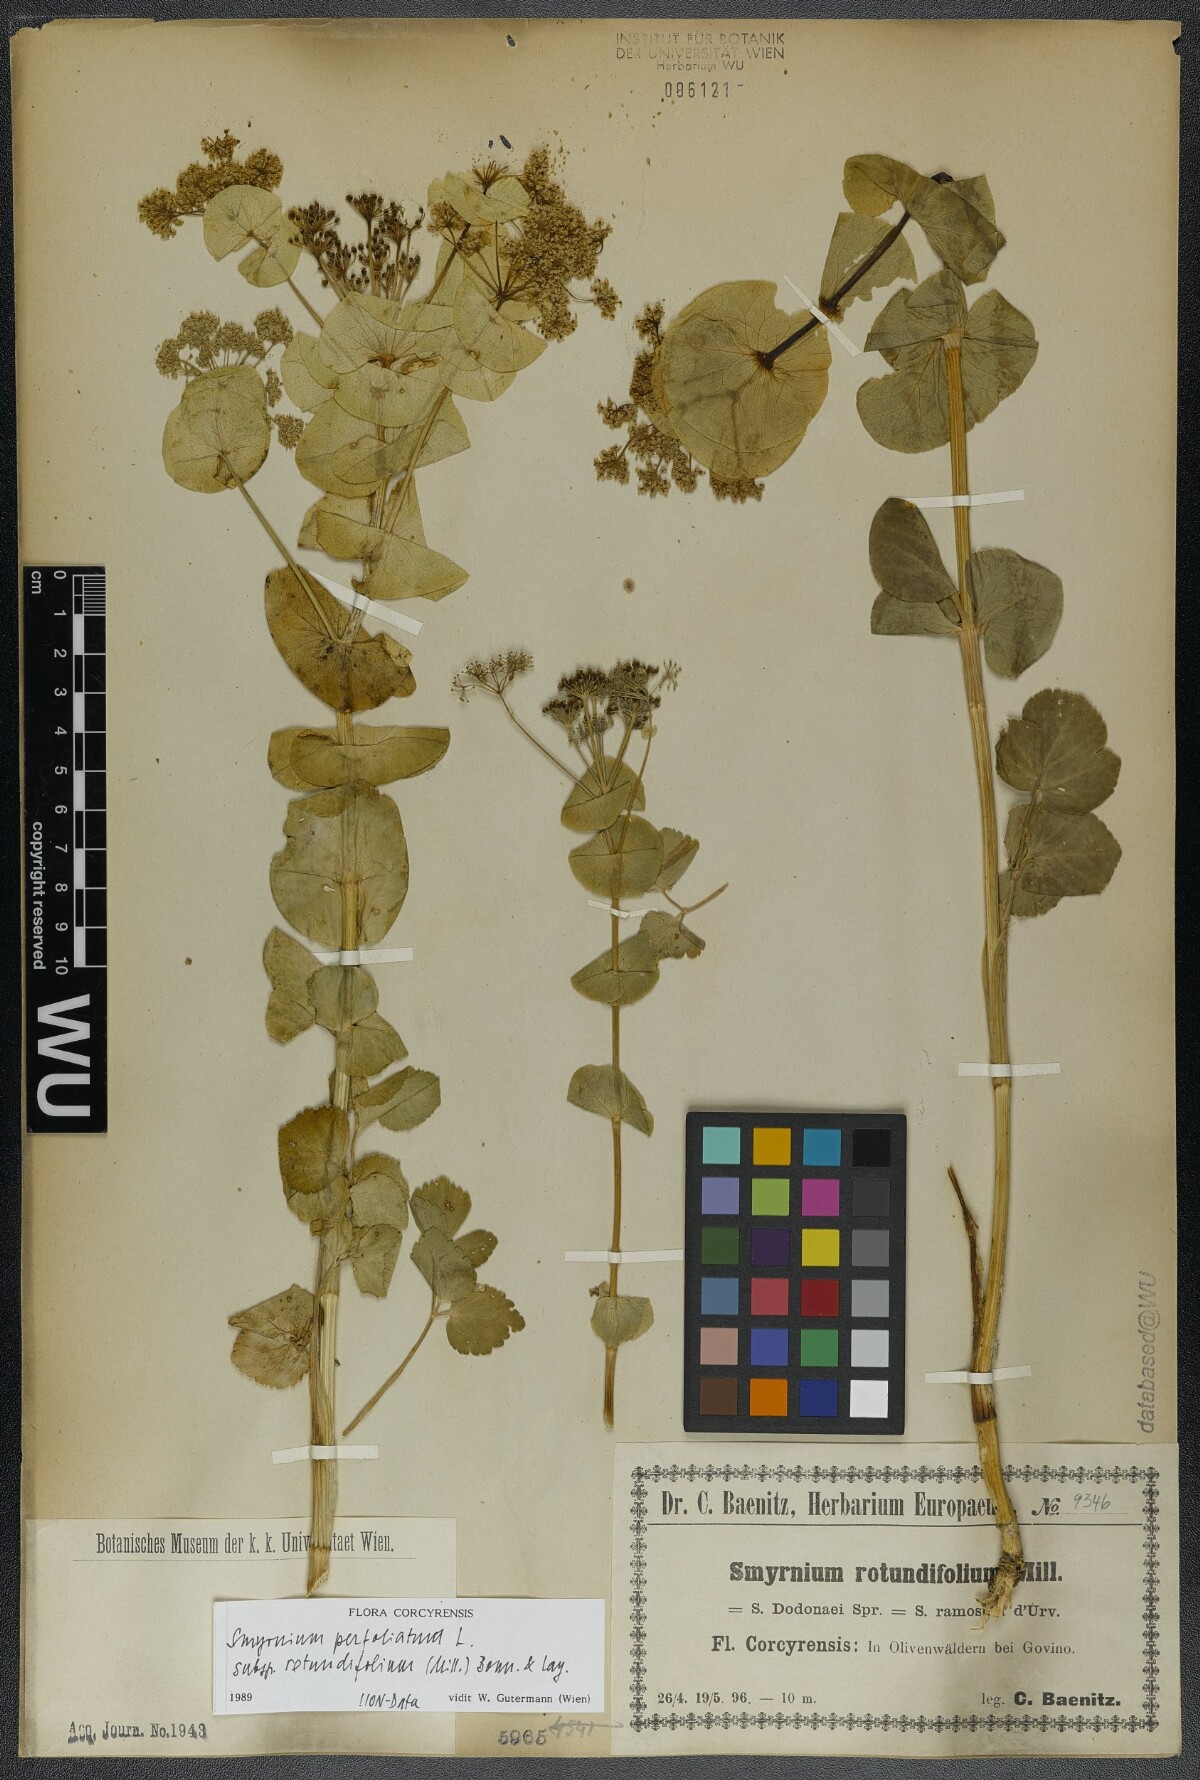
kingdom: Plantae
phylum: Tracheophyta
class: Magnoliopsida
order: Apiales
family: Apiaceae
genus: Smyrnium
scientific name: Smyrnium perfoliatum
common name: Perfoliate alexanders
